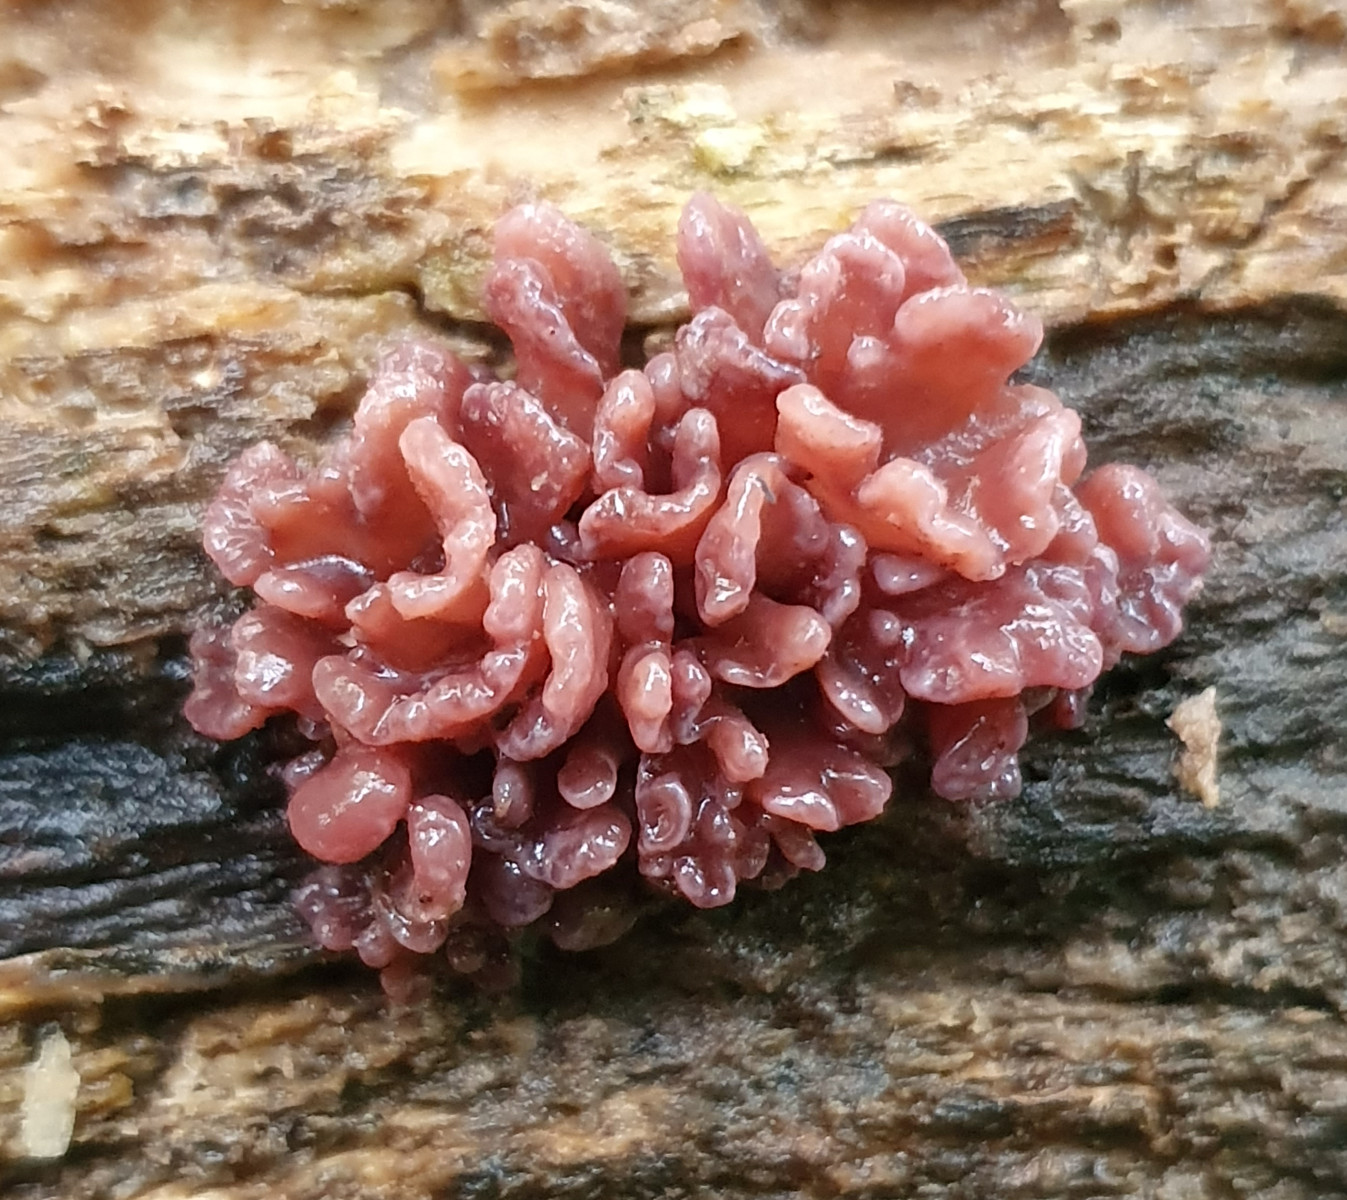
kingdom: Fungi
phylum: Ascomycota
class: Leotiomycetes
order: Helotiales
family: Gelatinodiscaceae
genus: Ascocoryne
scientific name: Ascocoryne sarcoides
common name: rødlilla sejskive
